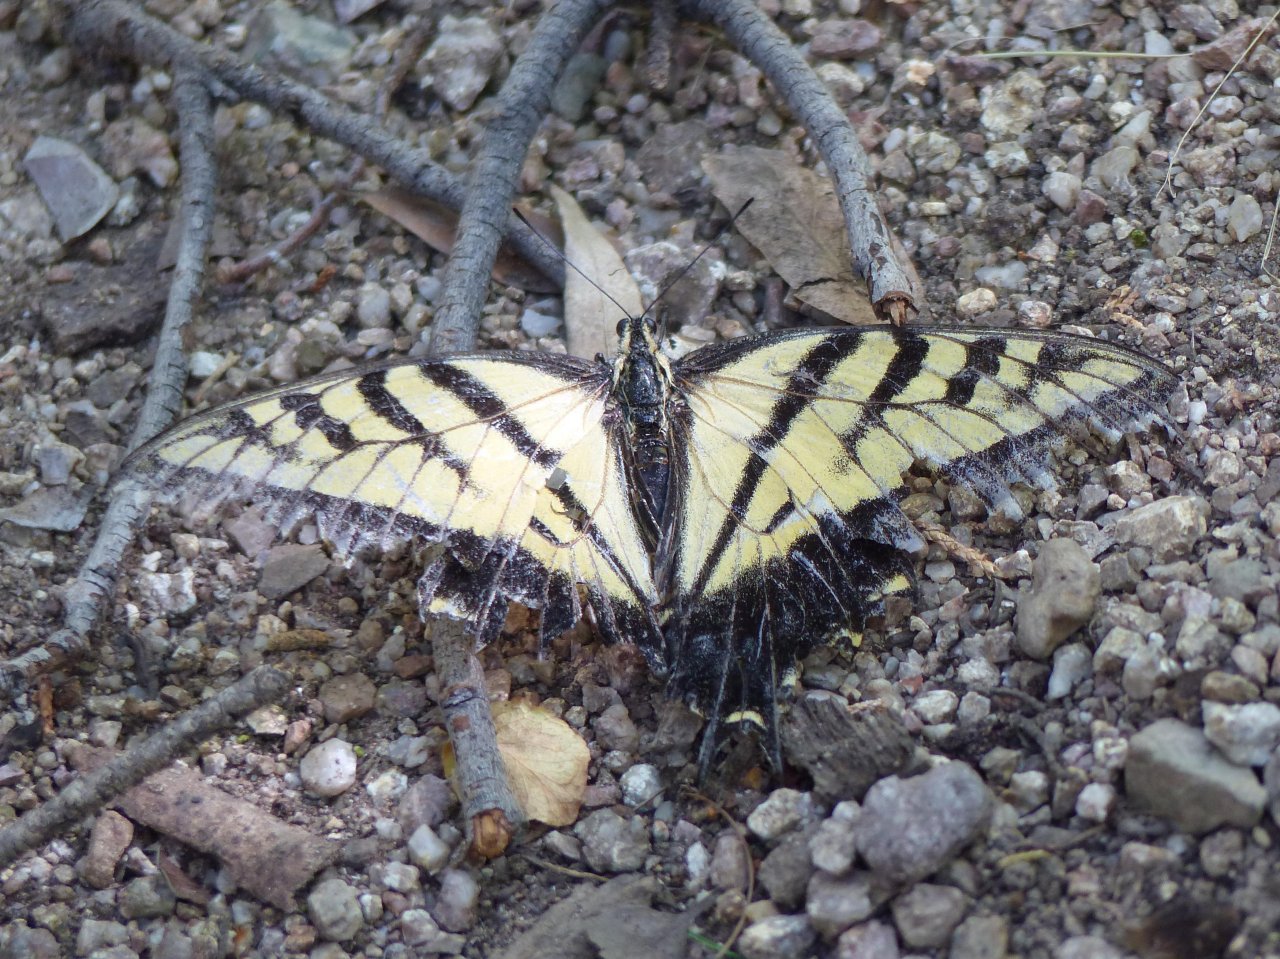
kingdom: Animalia
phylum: Arthropoda
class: Insecta
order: Lepidoptera
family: Papilionidae
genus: Papilio
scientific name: Papilio multicaudata
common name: Two-tailed Swallowtail
